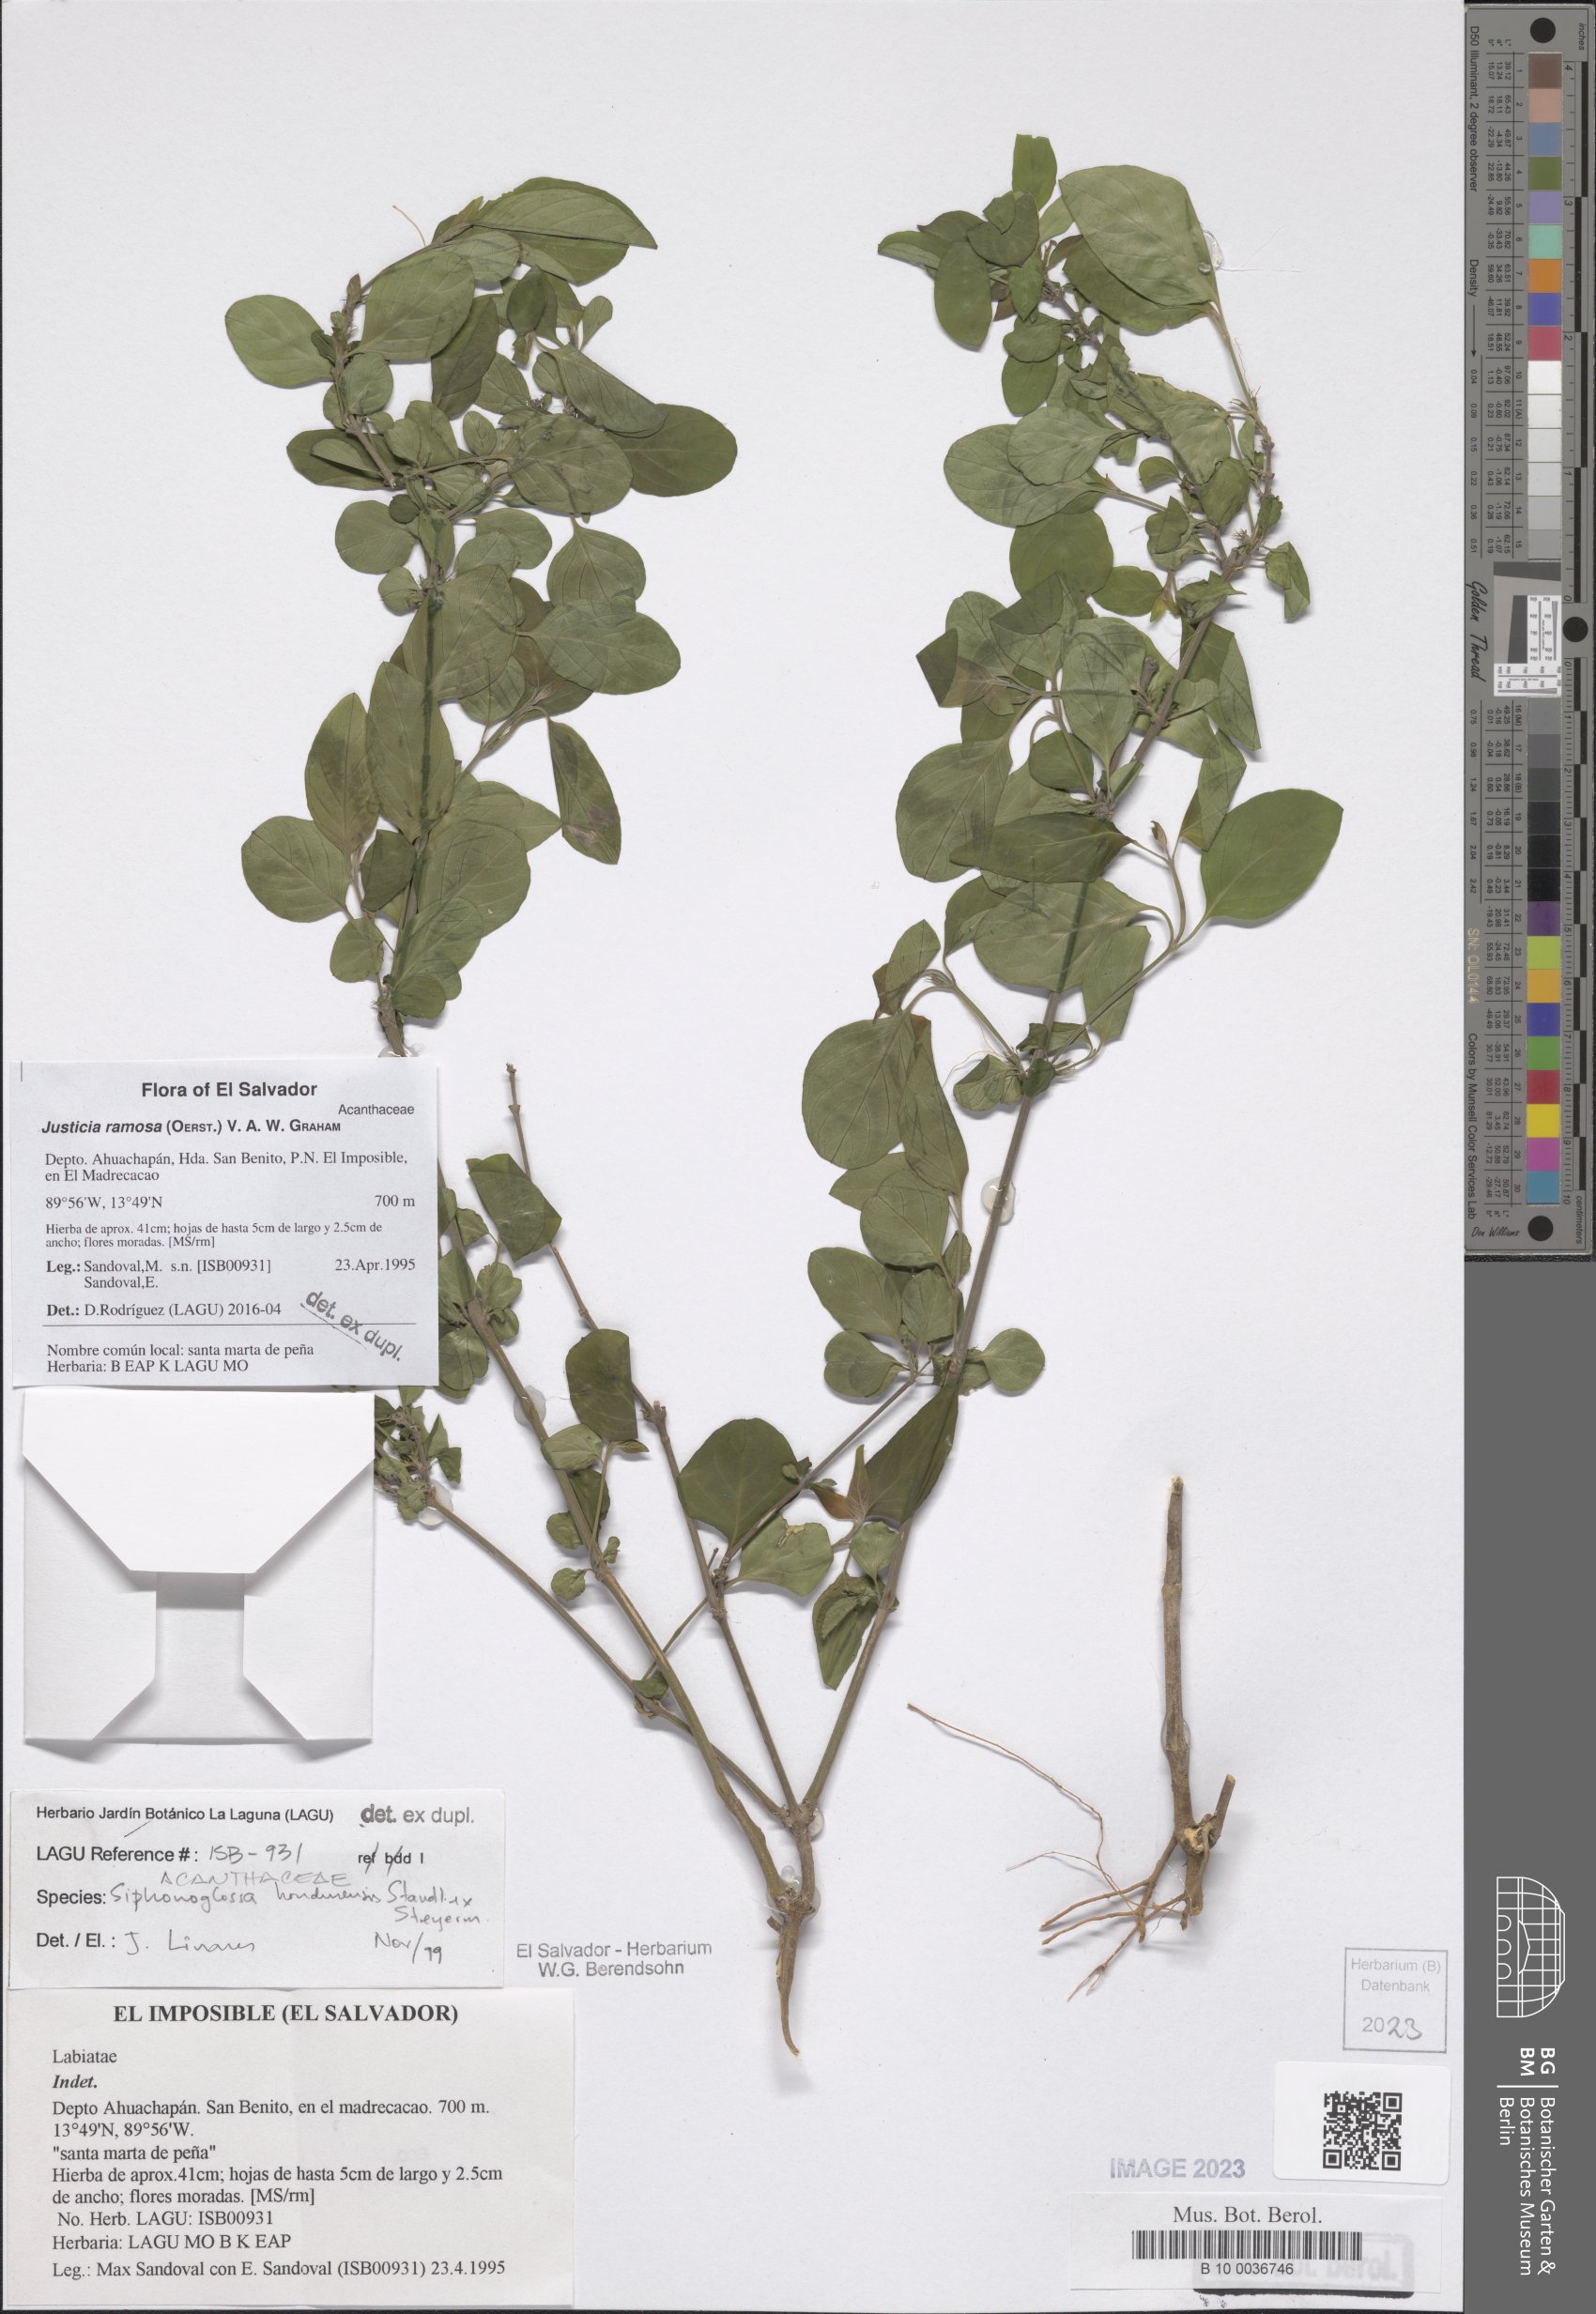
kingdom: Plantae
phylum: Tracheophyta
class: Magnoliopsida
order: Lamiales
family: Acanthaceae
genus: Justicia
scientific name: Justicia ramosa
